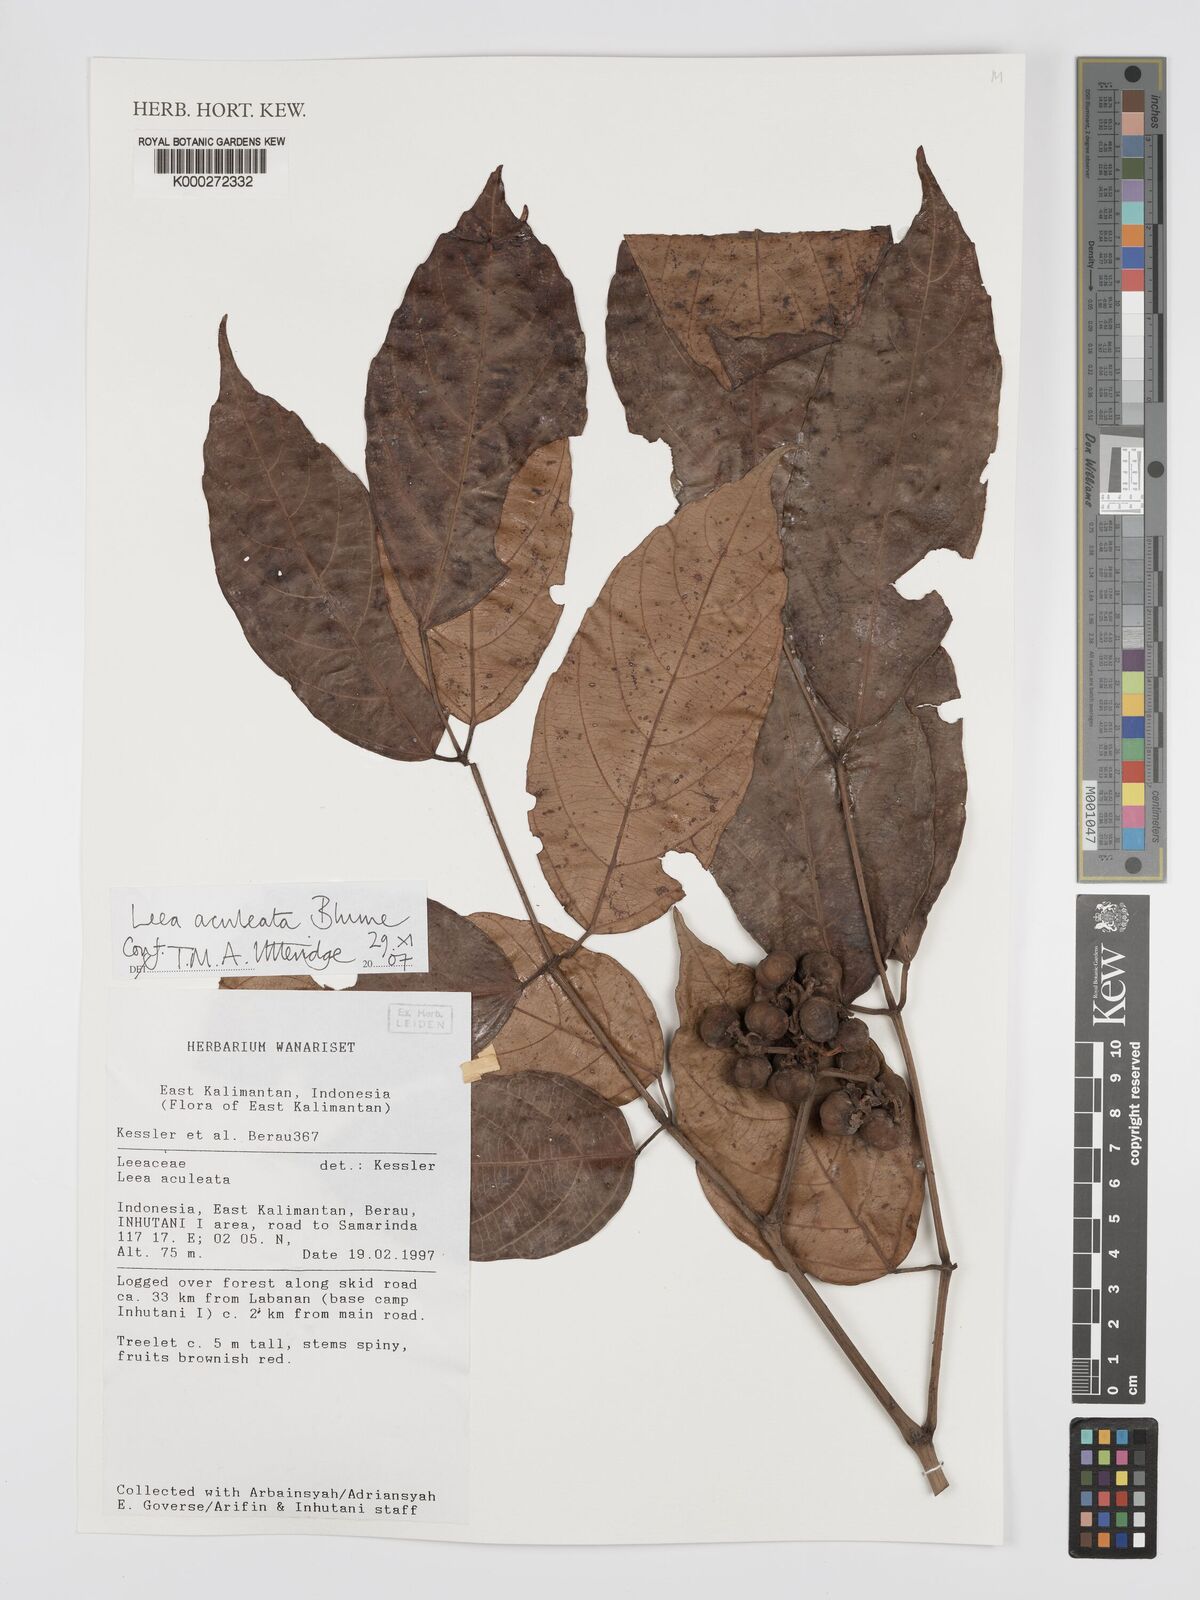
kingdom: Plantae
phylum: Tracheophyta
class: Magnoliopsida
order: Vitales
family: Vitaceae
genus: Leea
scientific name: Leea aculeata
